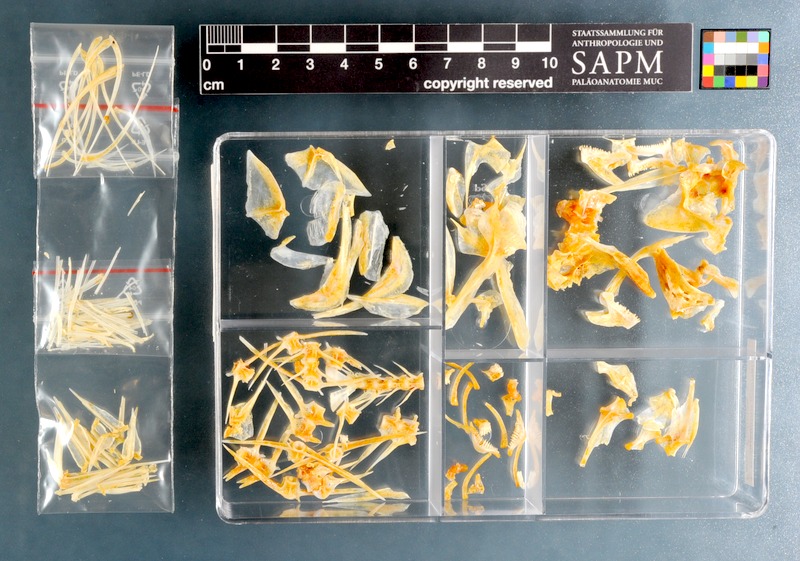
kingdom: Animalia
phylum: Chordata
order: Perciformes
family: Sparidae
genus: Boopsoidea
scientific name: Boopsoidea inornata
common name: Fransmadam
